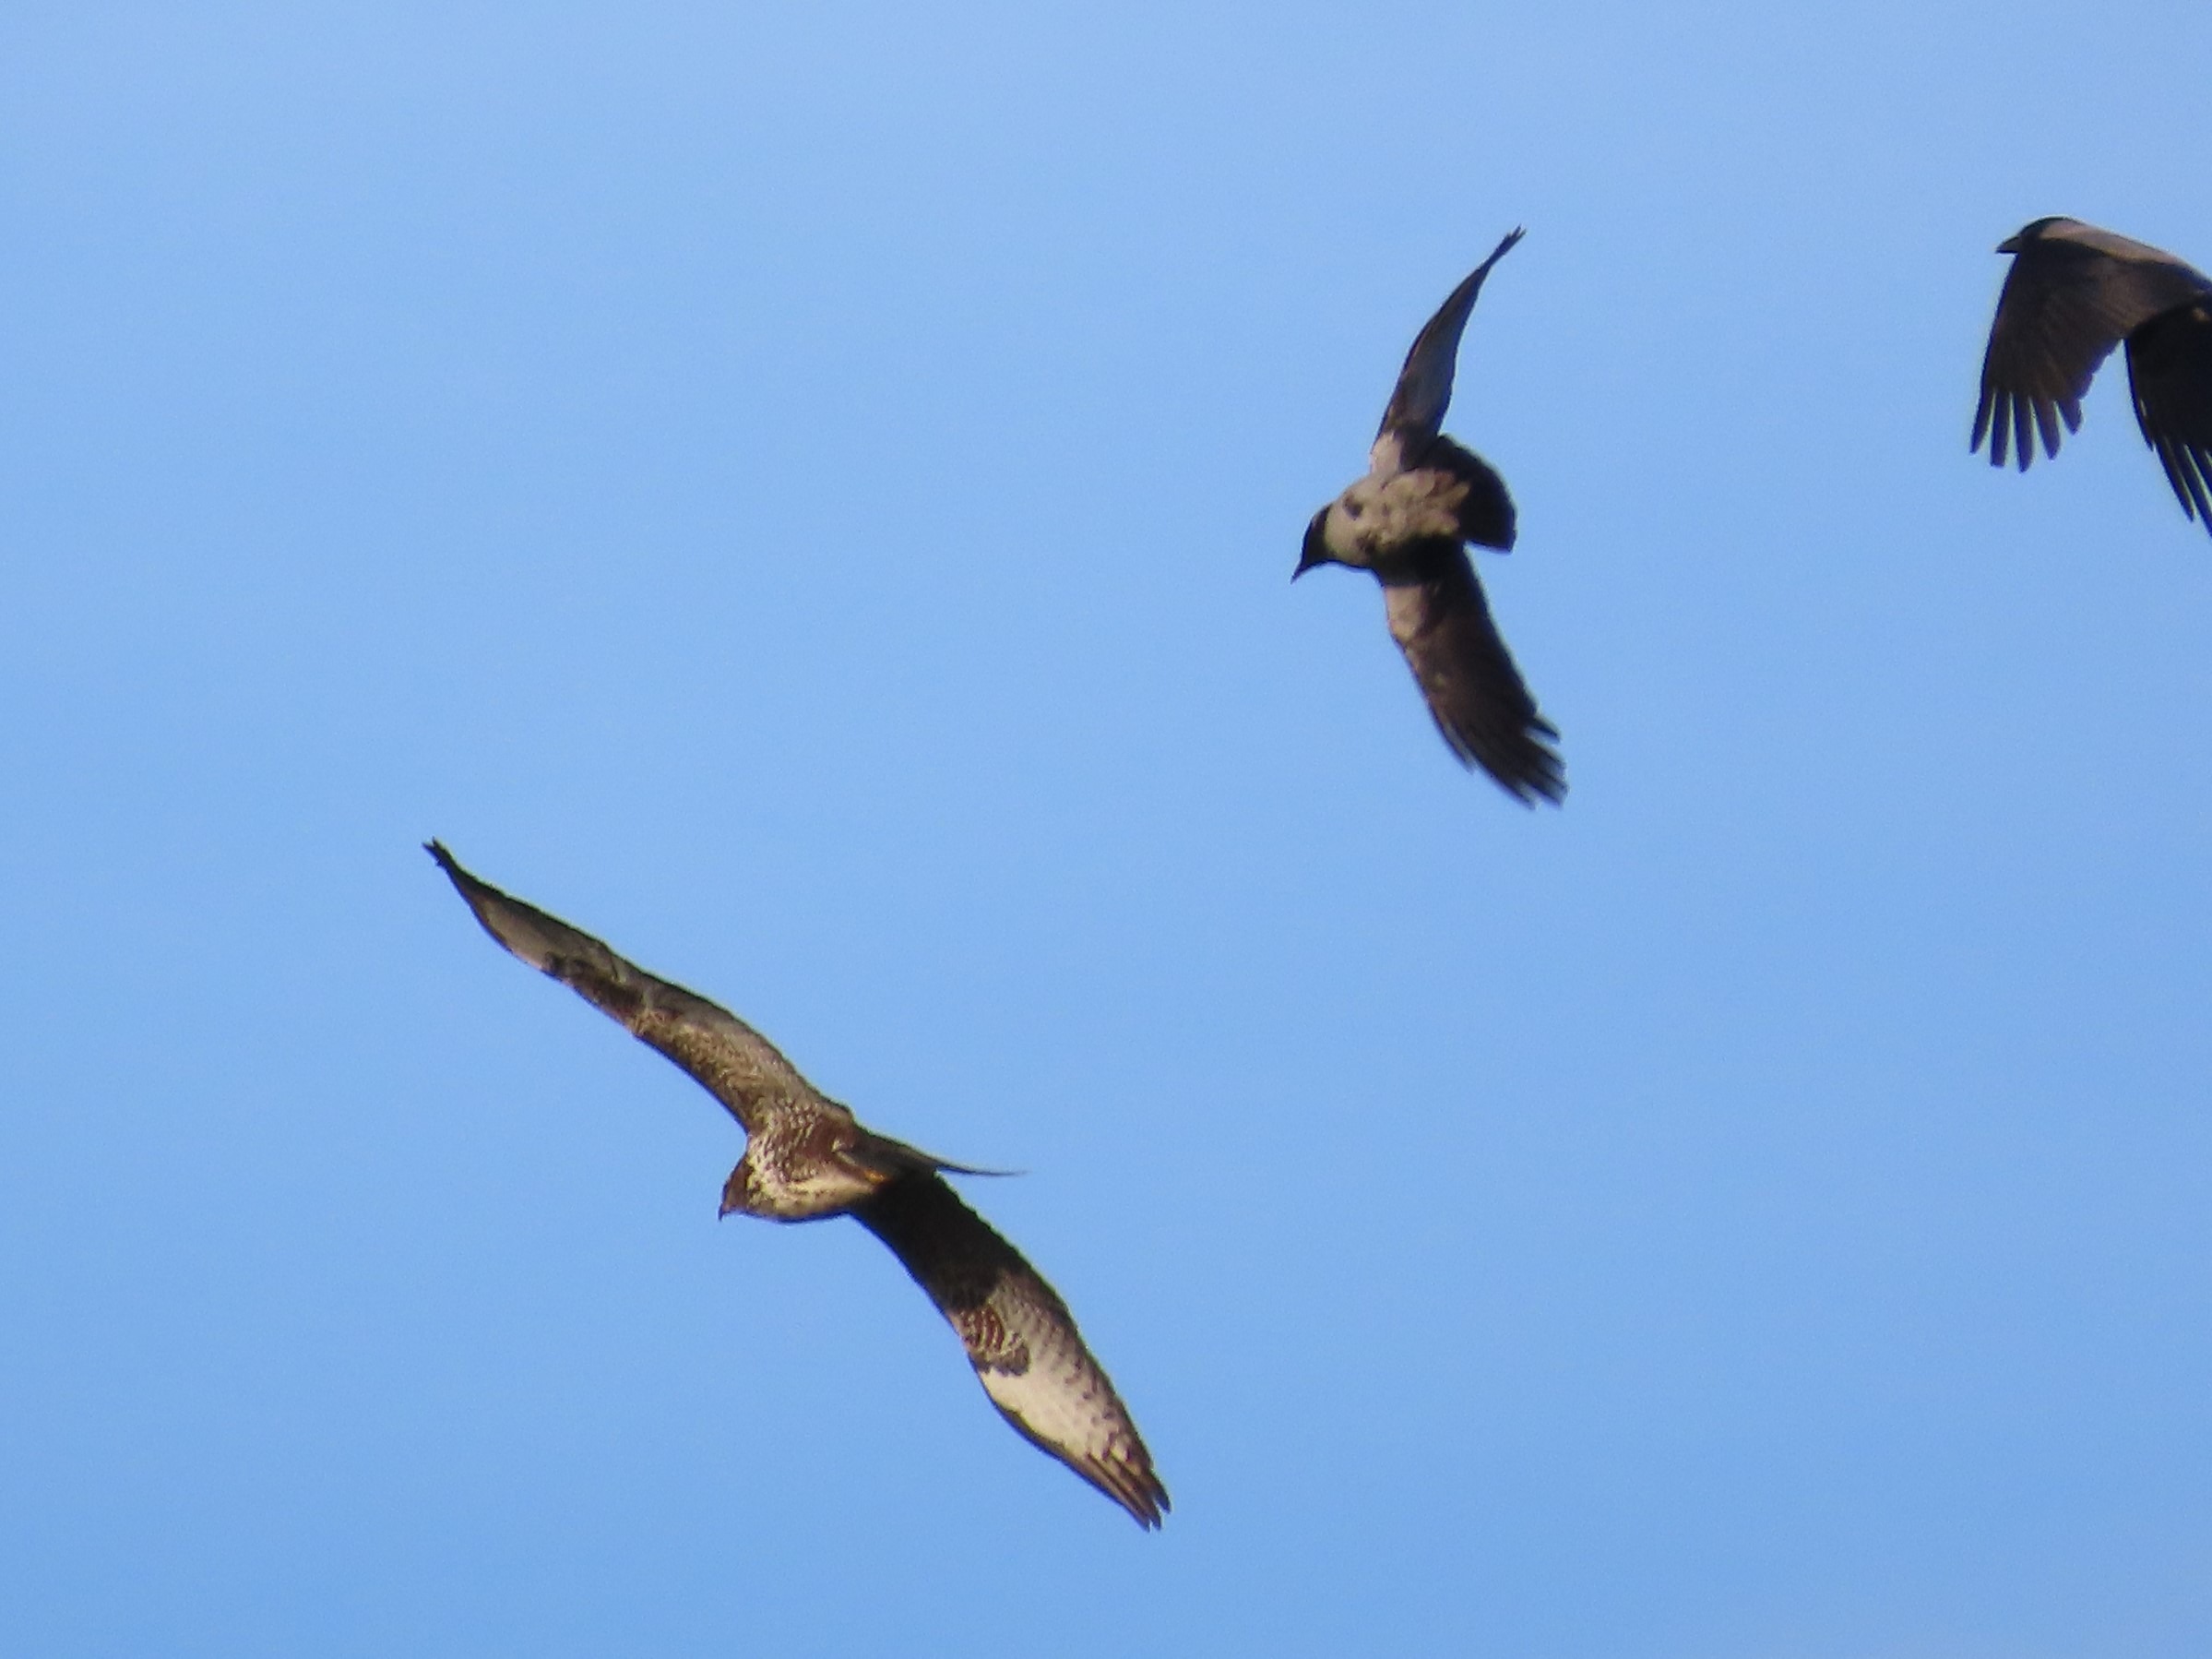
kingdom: Animalia
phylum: Chordata
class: Aves
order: Accipitriformes
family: Accipitridae
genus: Buteo
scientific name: Buteo buteo
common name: Musvåge
